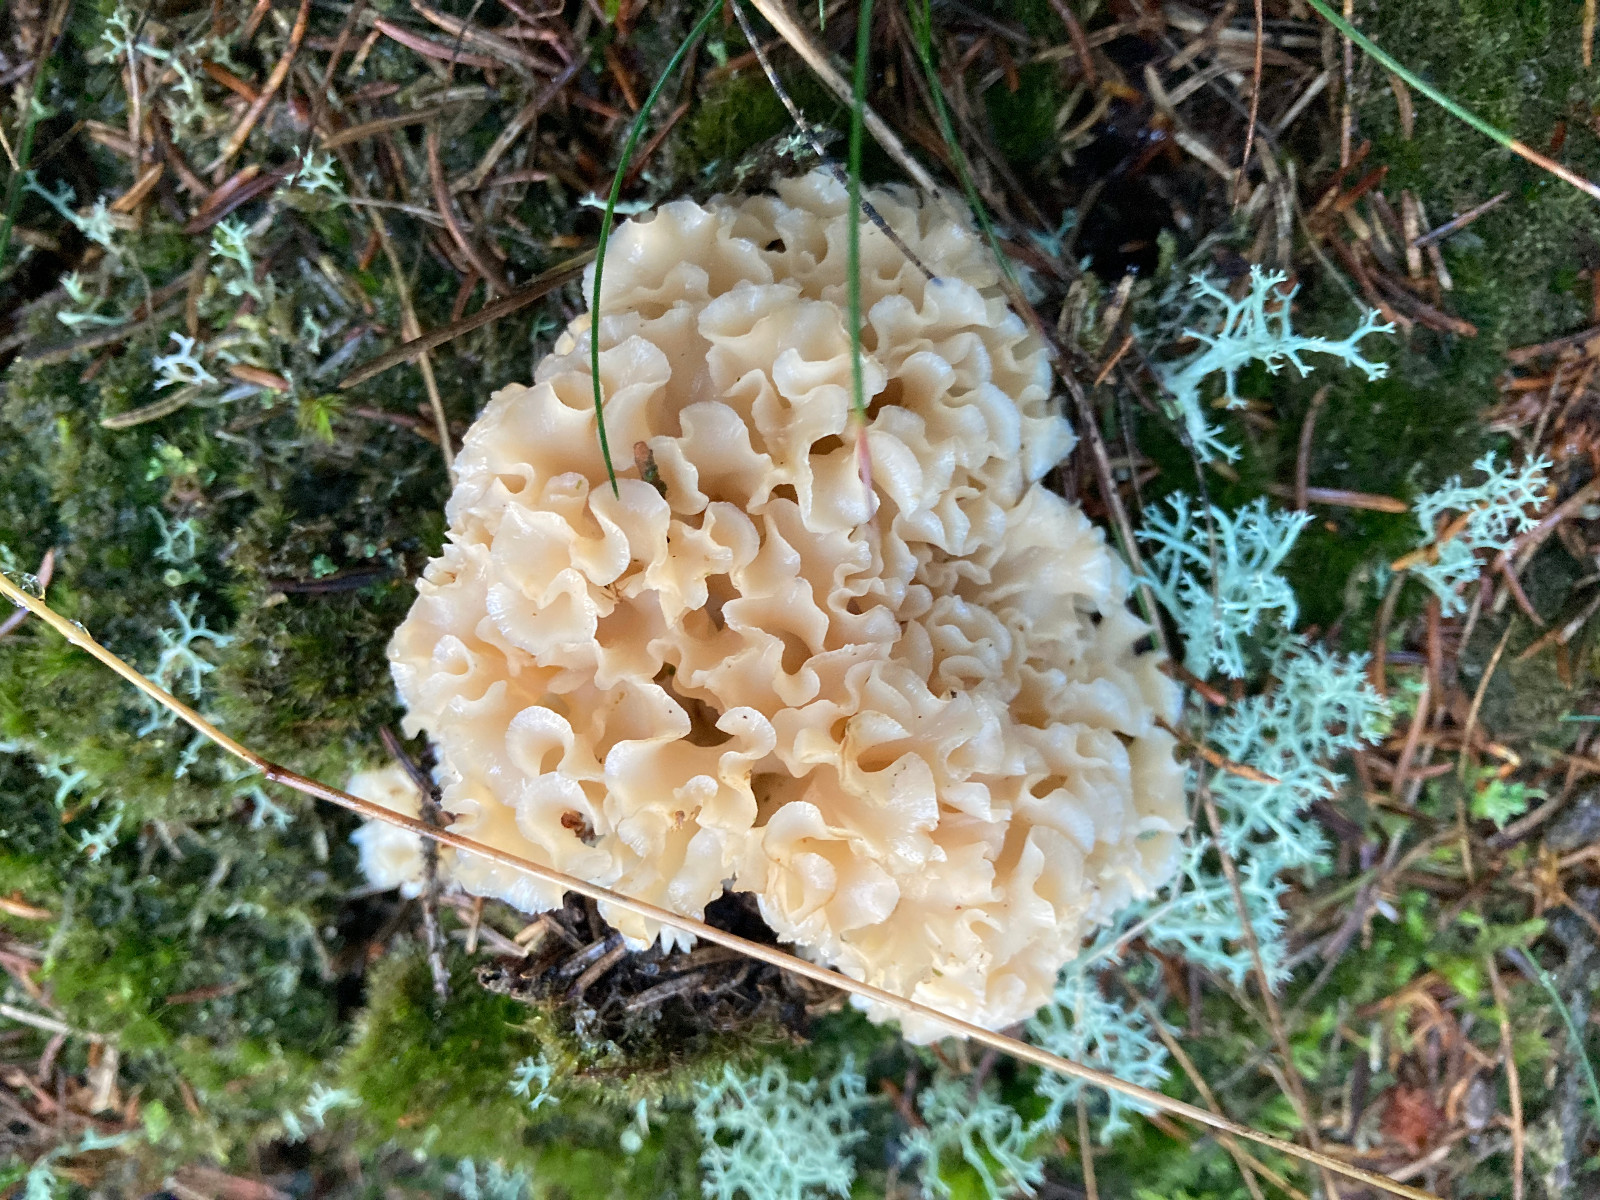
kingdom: Fungi
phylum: Basidiomycota
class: Agaricomycetes
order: Polyporales
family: Sparassidaceae
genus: Sparassis
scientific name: Sparassis crispa
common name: kruset blomkålssvamp
